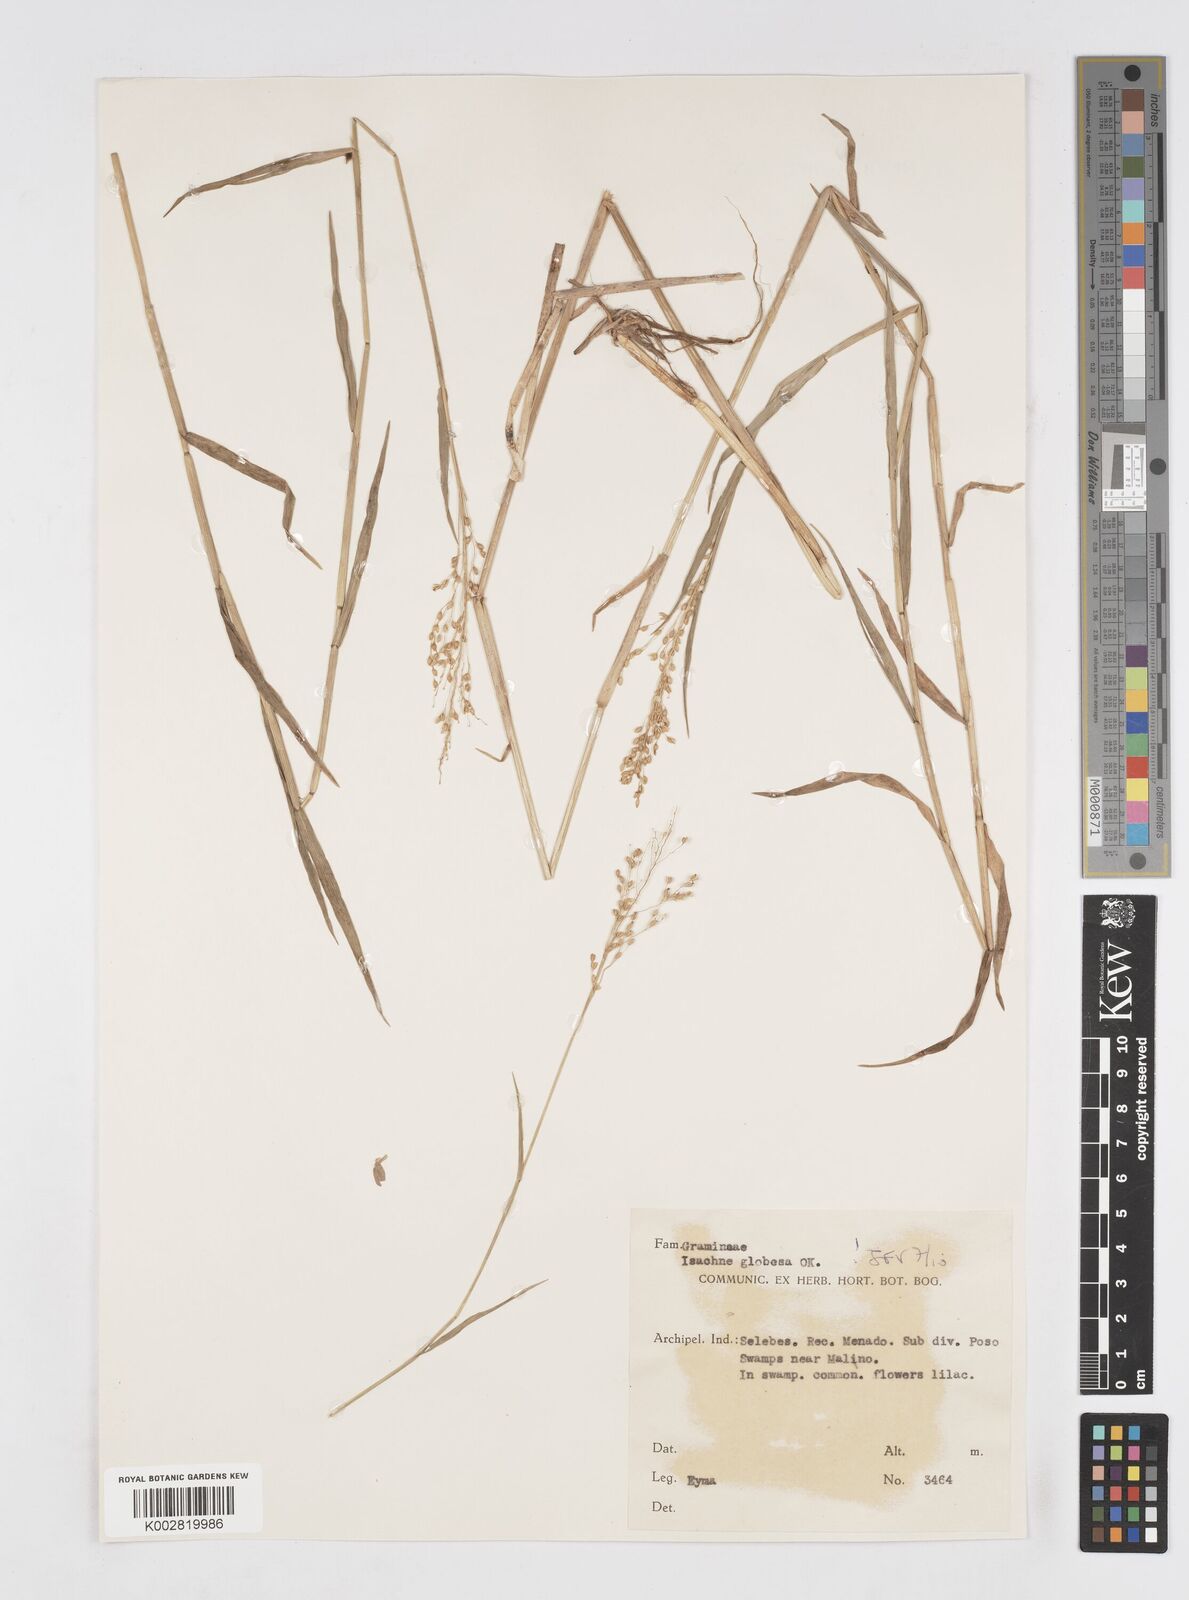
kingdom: Plantae
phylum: Tracheophyta
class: Liliopsida
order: Poales
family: Poaceae
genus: Isachne
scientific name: Isachne globosa
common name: Swamp millet
